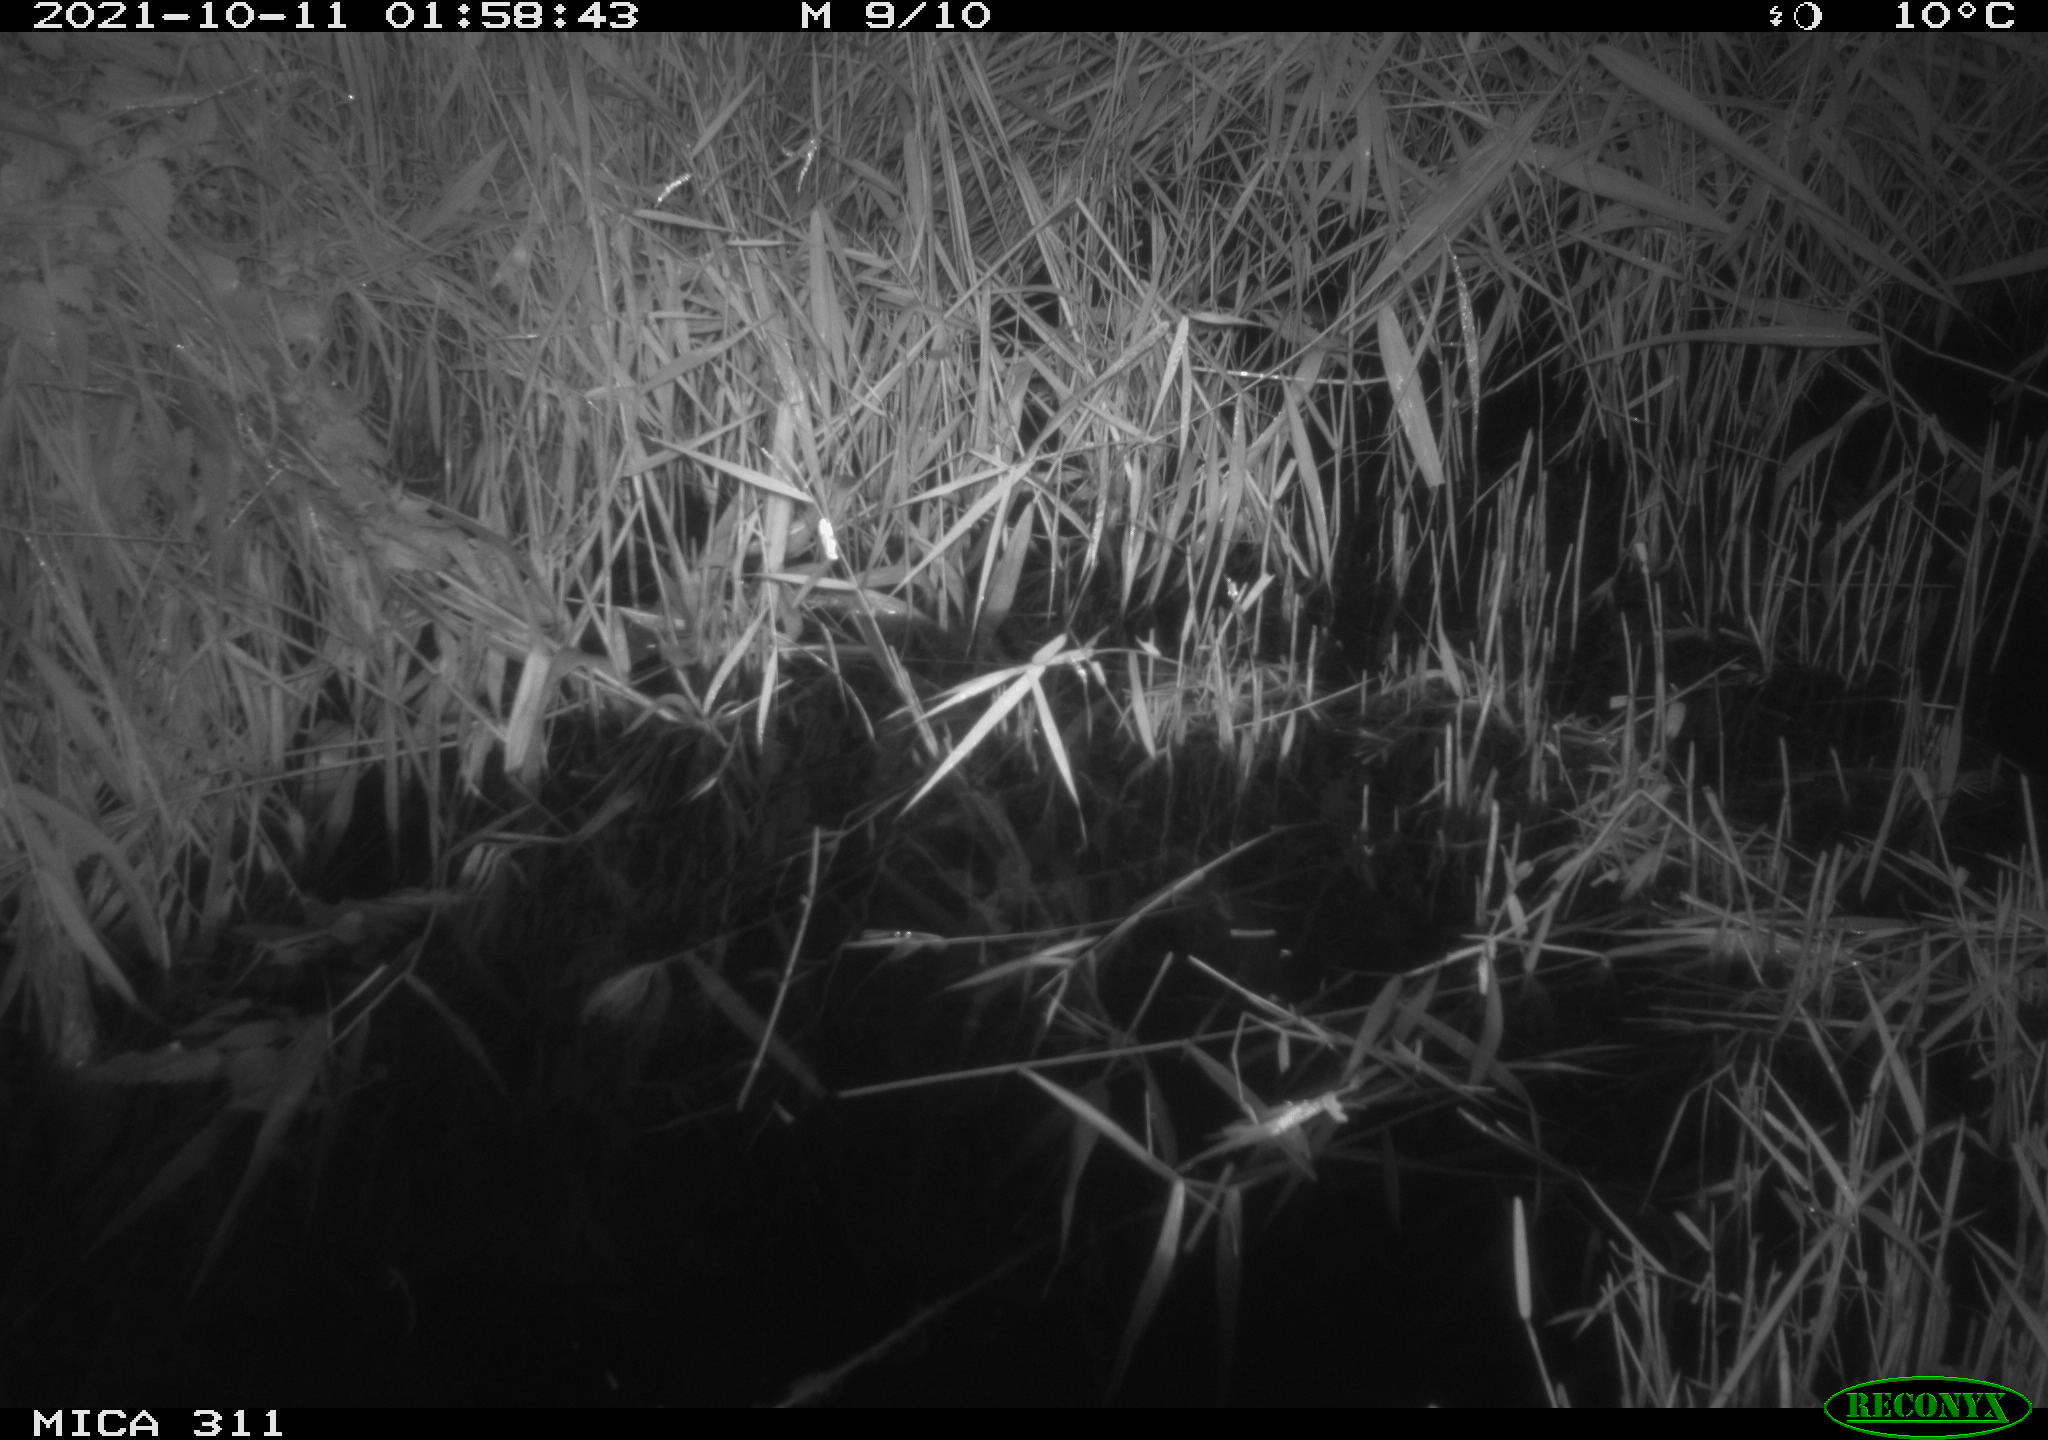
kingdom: Animalia
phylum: Chordata
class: Mammalia
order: Rodentia
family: Muridae
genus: Rattus
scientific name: Rattus norvegicus
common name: Brown rat
